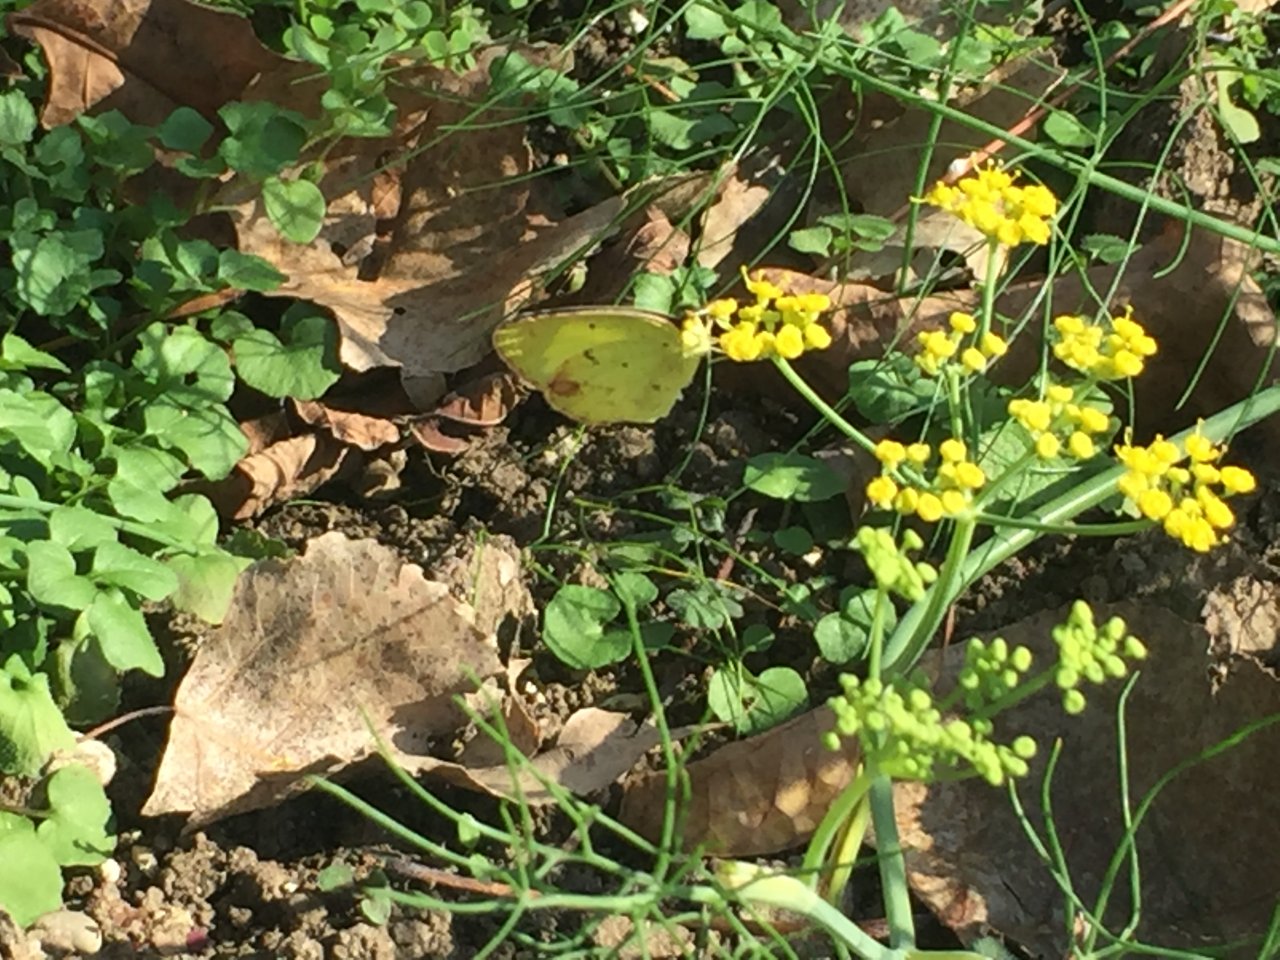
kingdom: Animalia
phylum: Arthropoda
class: Insecta
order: Lepidoptera
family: Pieridae
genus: Pyrisitia
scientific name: Pyrisitia lisa
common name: Little Yellow
